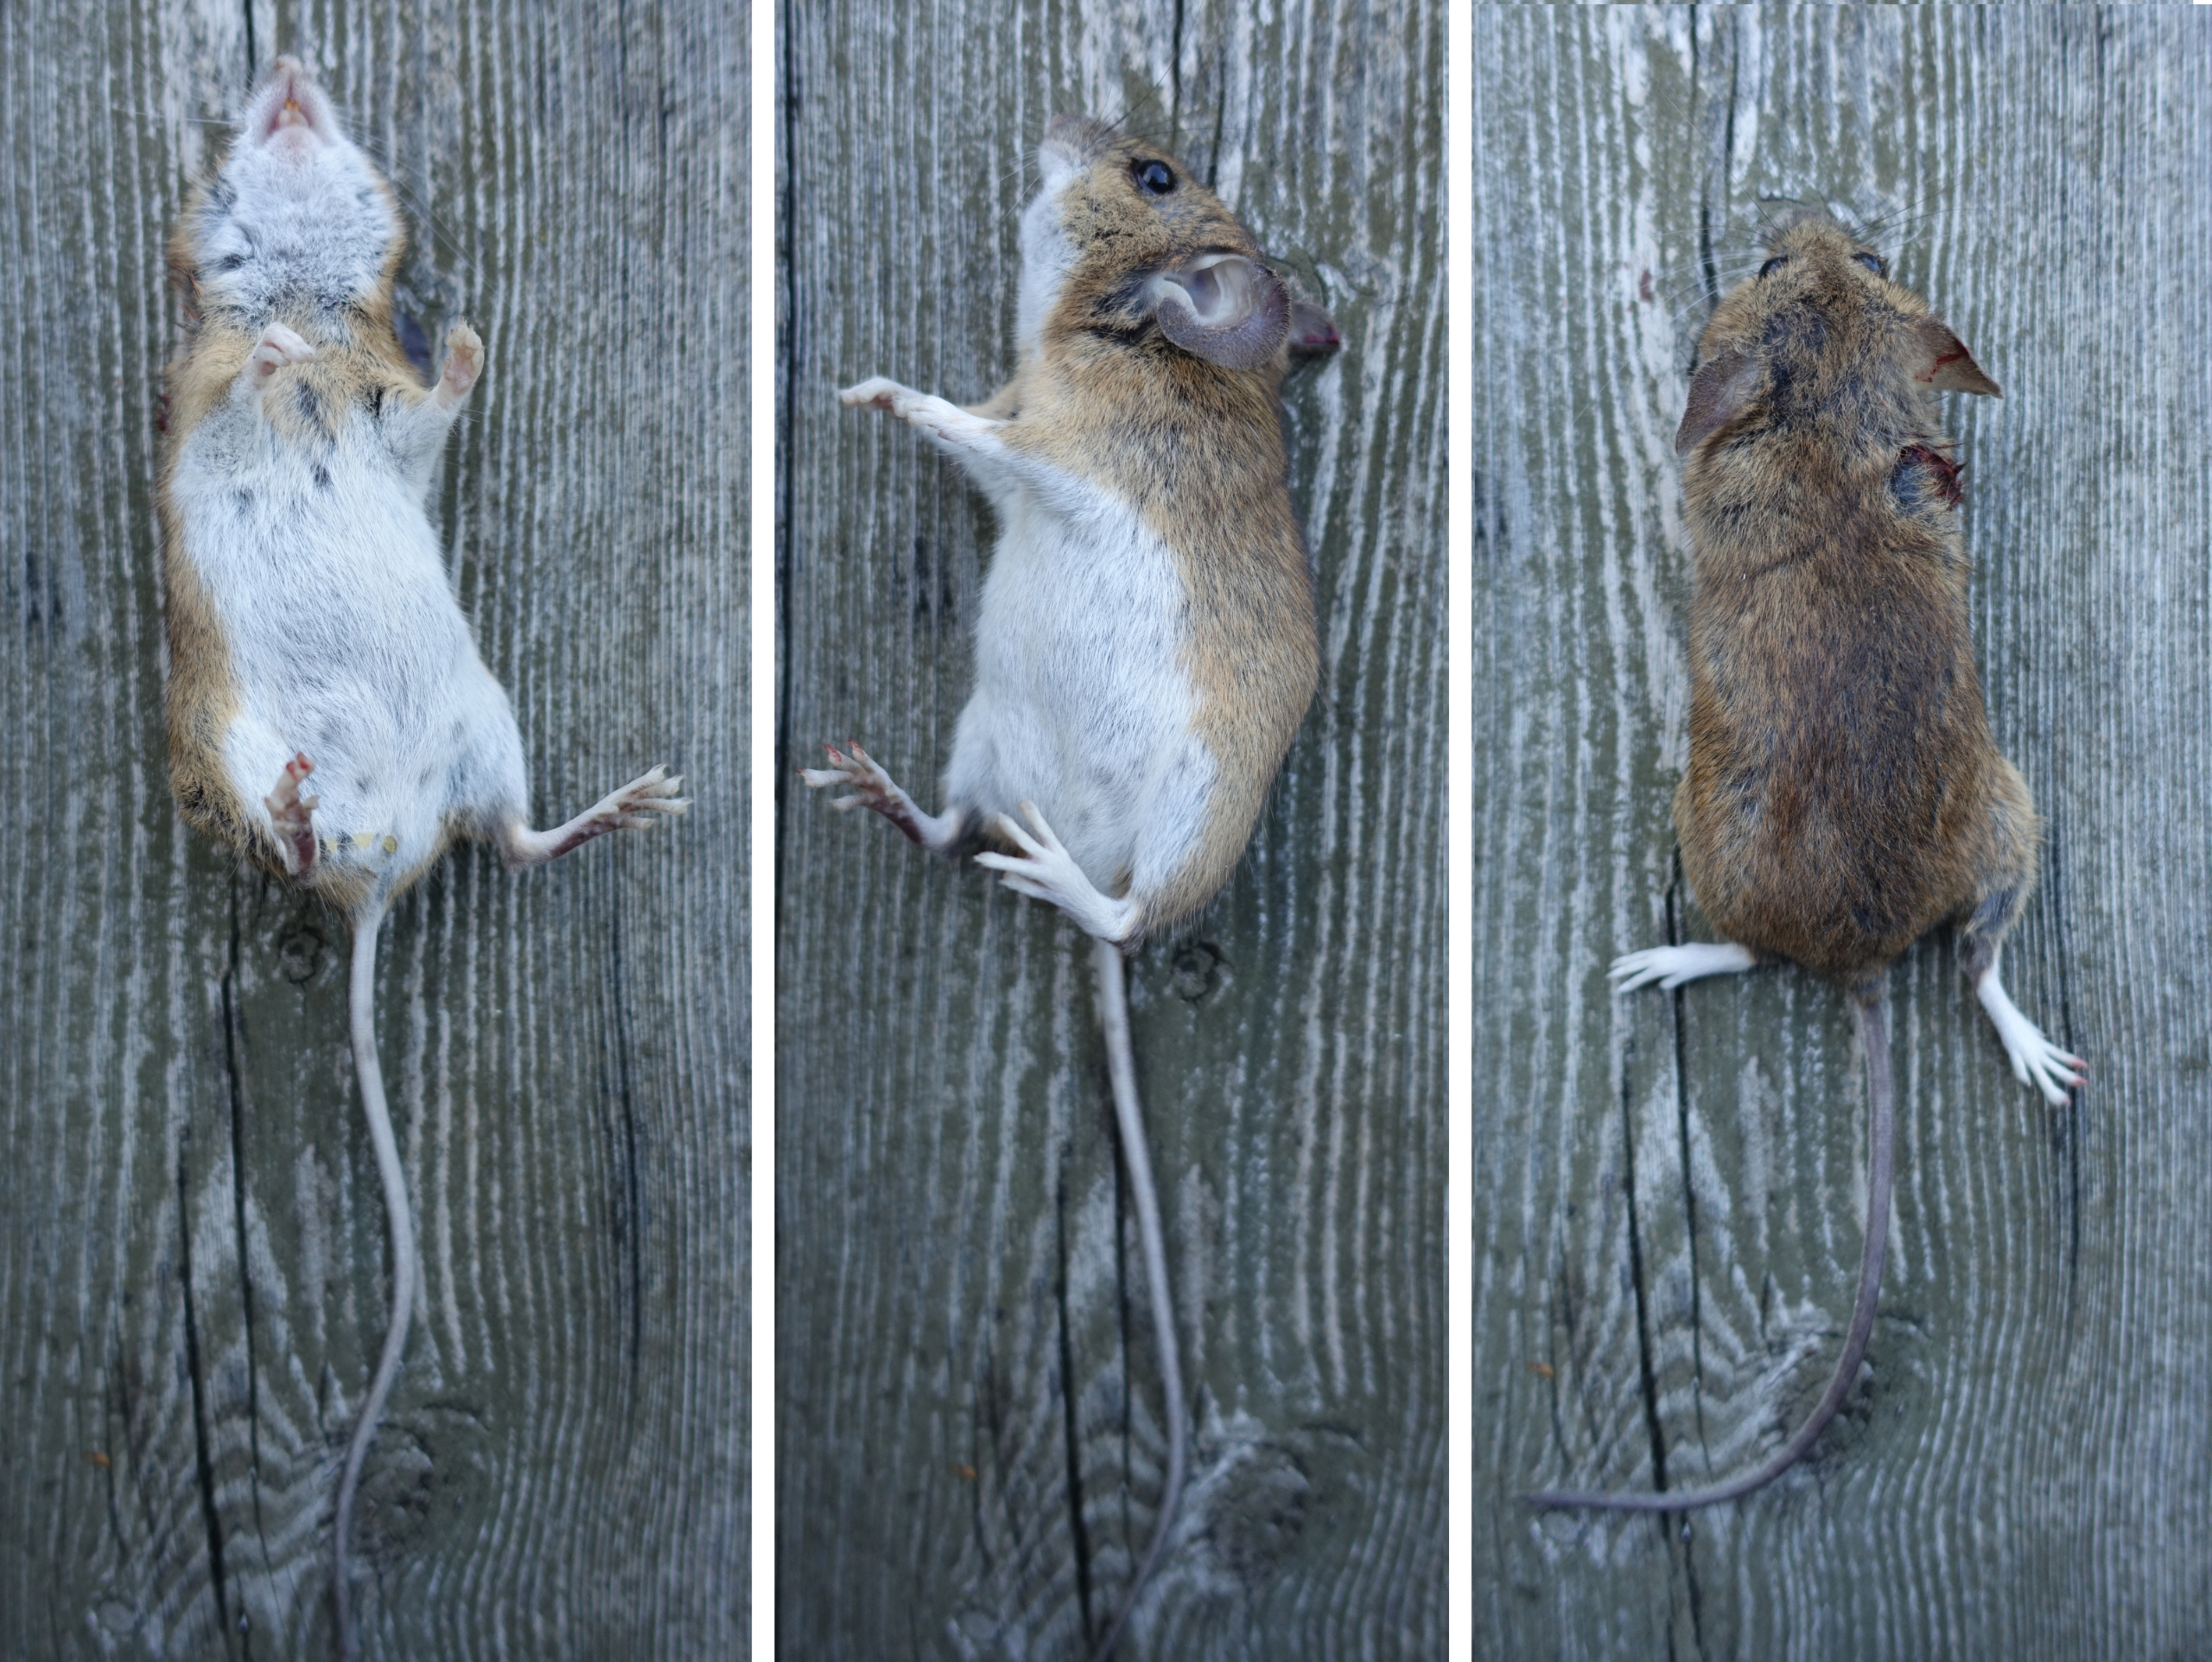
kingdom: Animalia
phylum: Chordata
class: Mammalia
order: Rodentia
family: Muridae
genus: Apodemus
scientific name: Apodemus flavicollis
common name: Halsbåndmus
